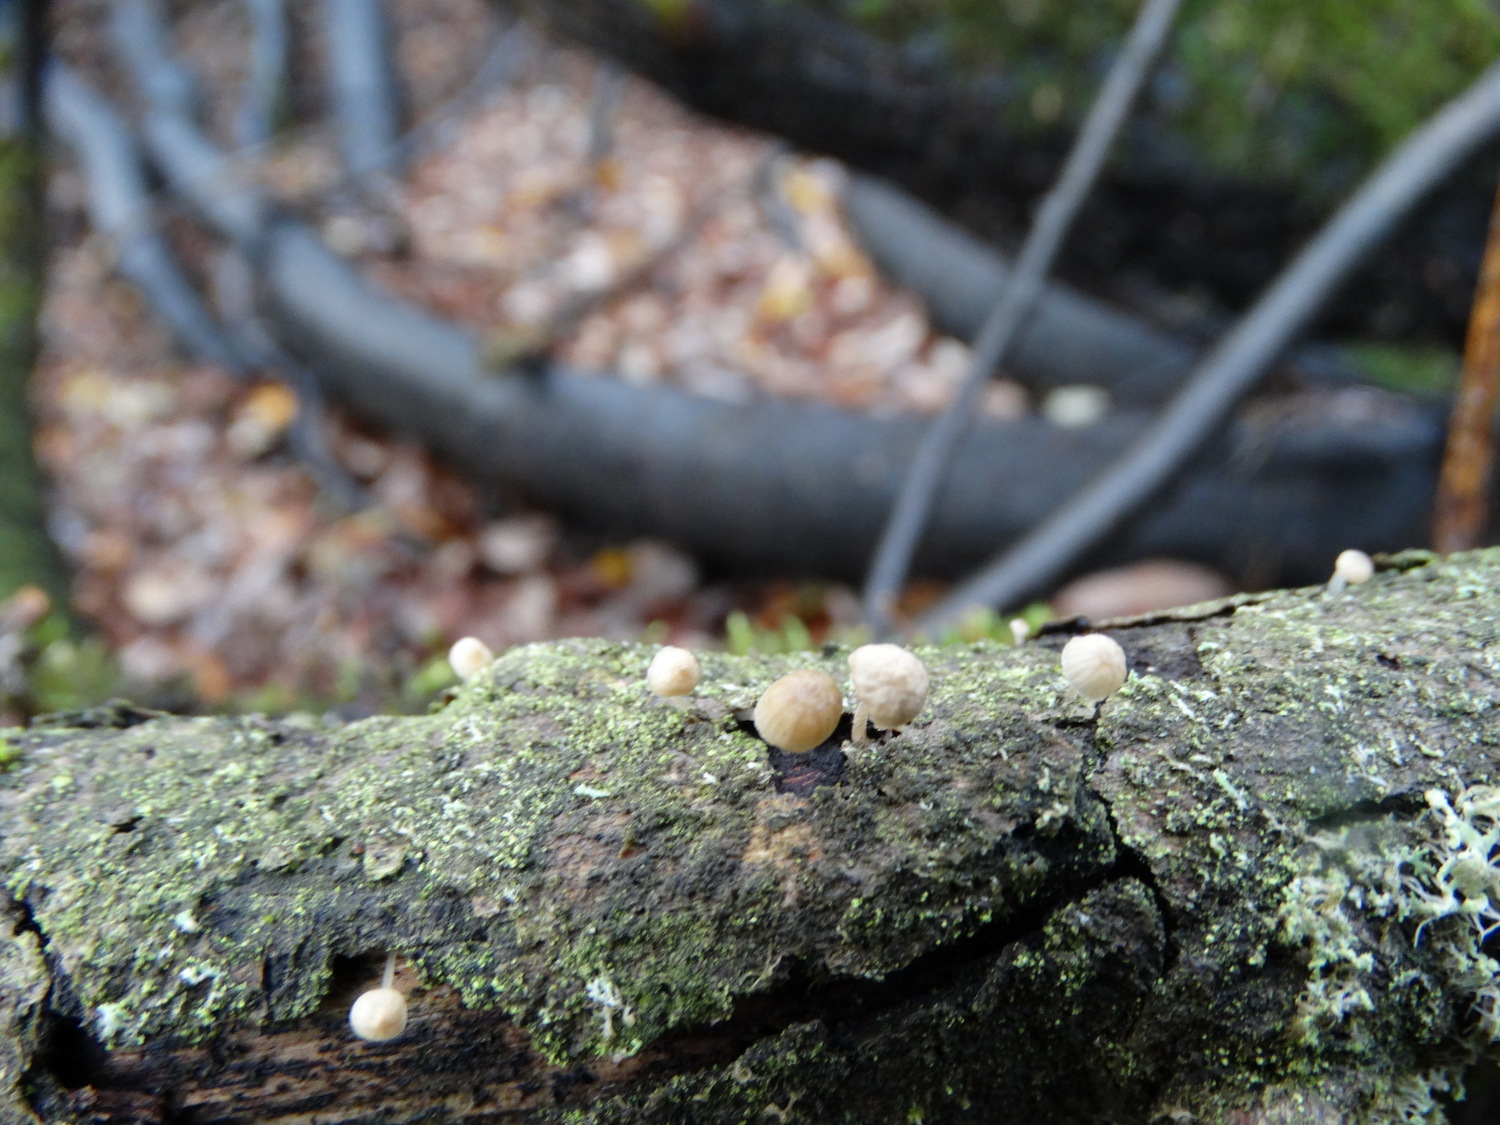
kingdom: Fungi
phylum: Basidiomycota
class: Agaricomycetes
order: Agaricales
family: Porotheleaceae
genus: Phloeomana
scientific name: Phloeomana speirea
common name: kvist-huesvamp
